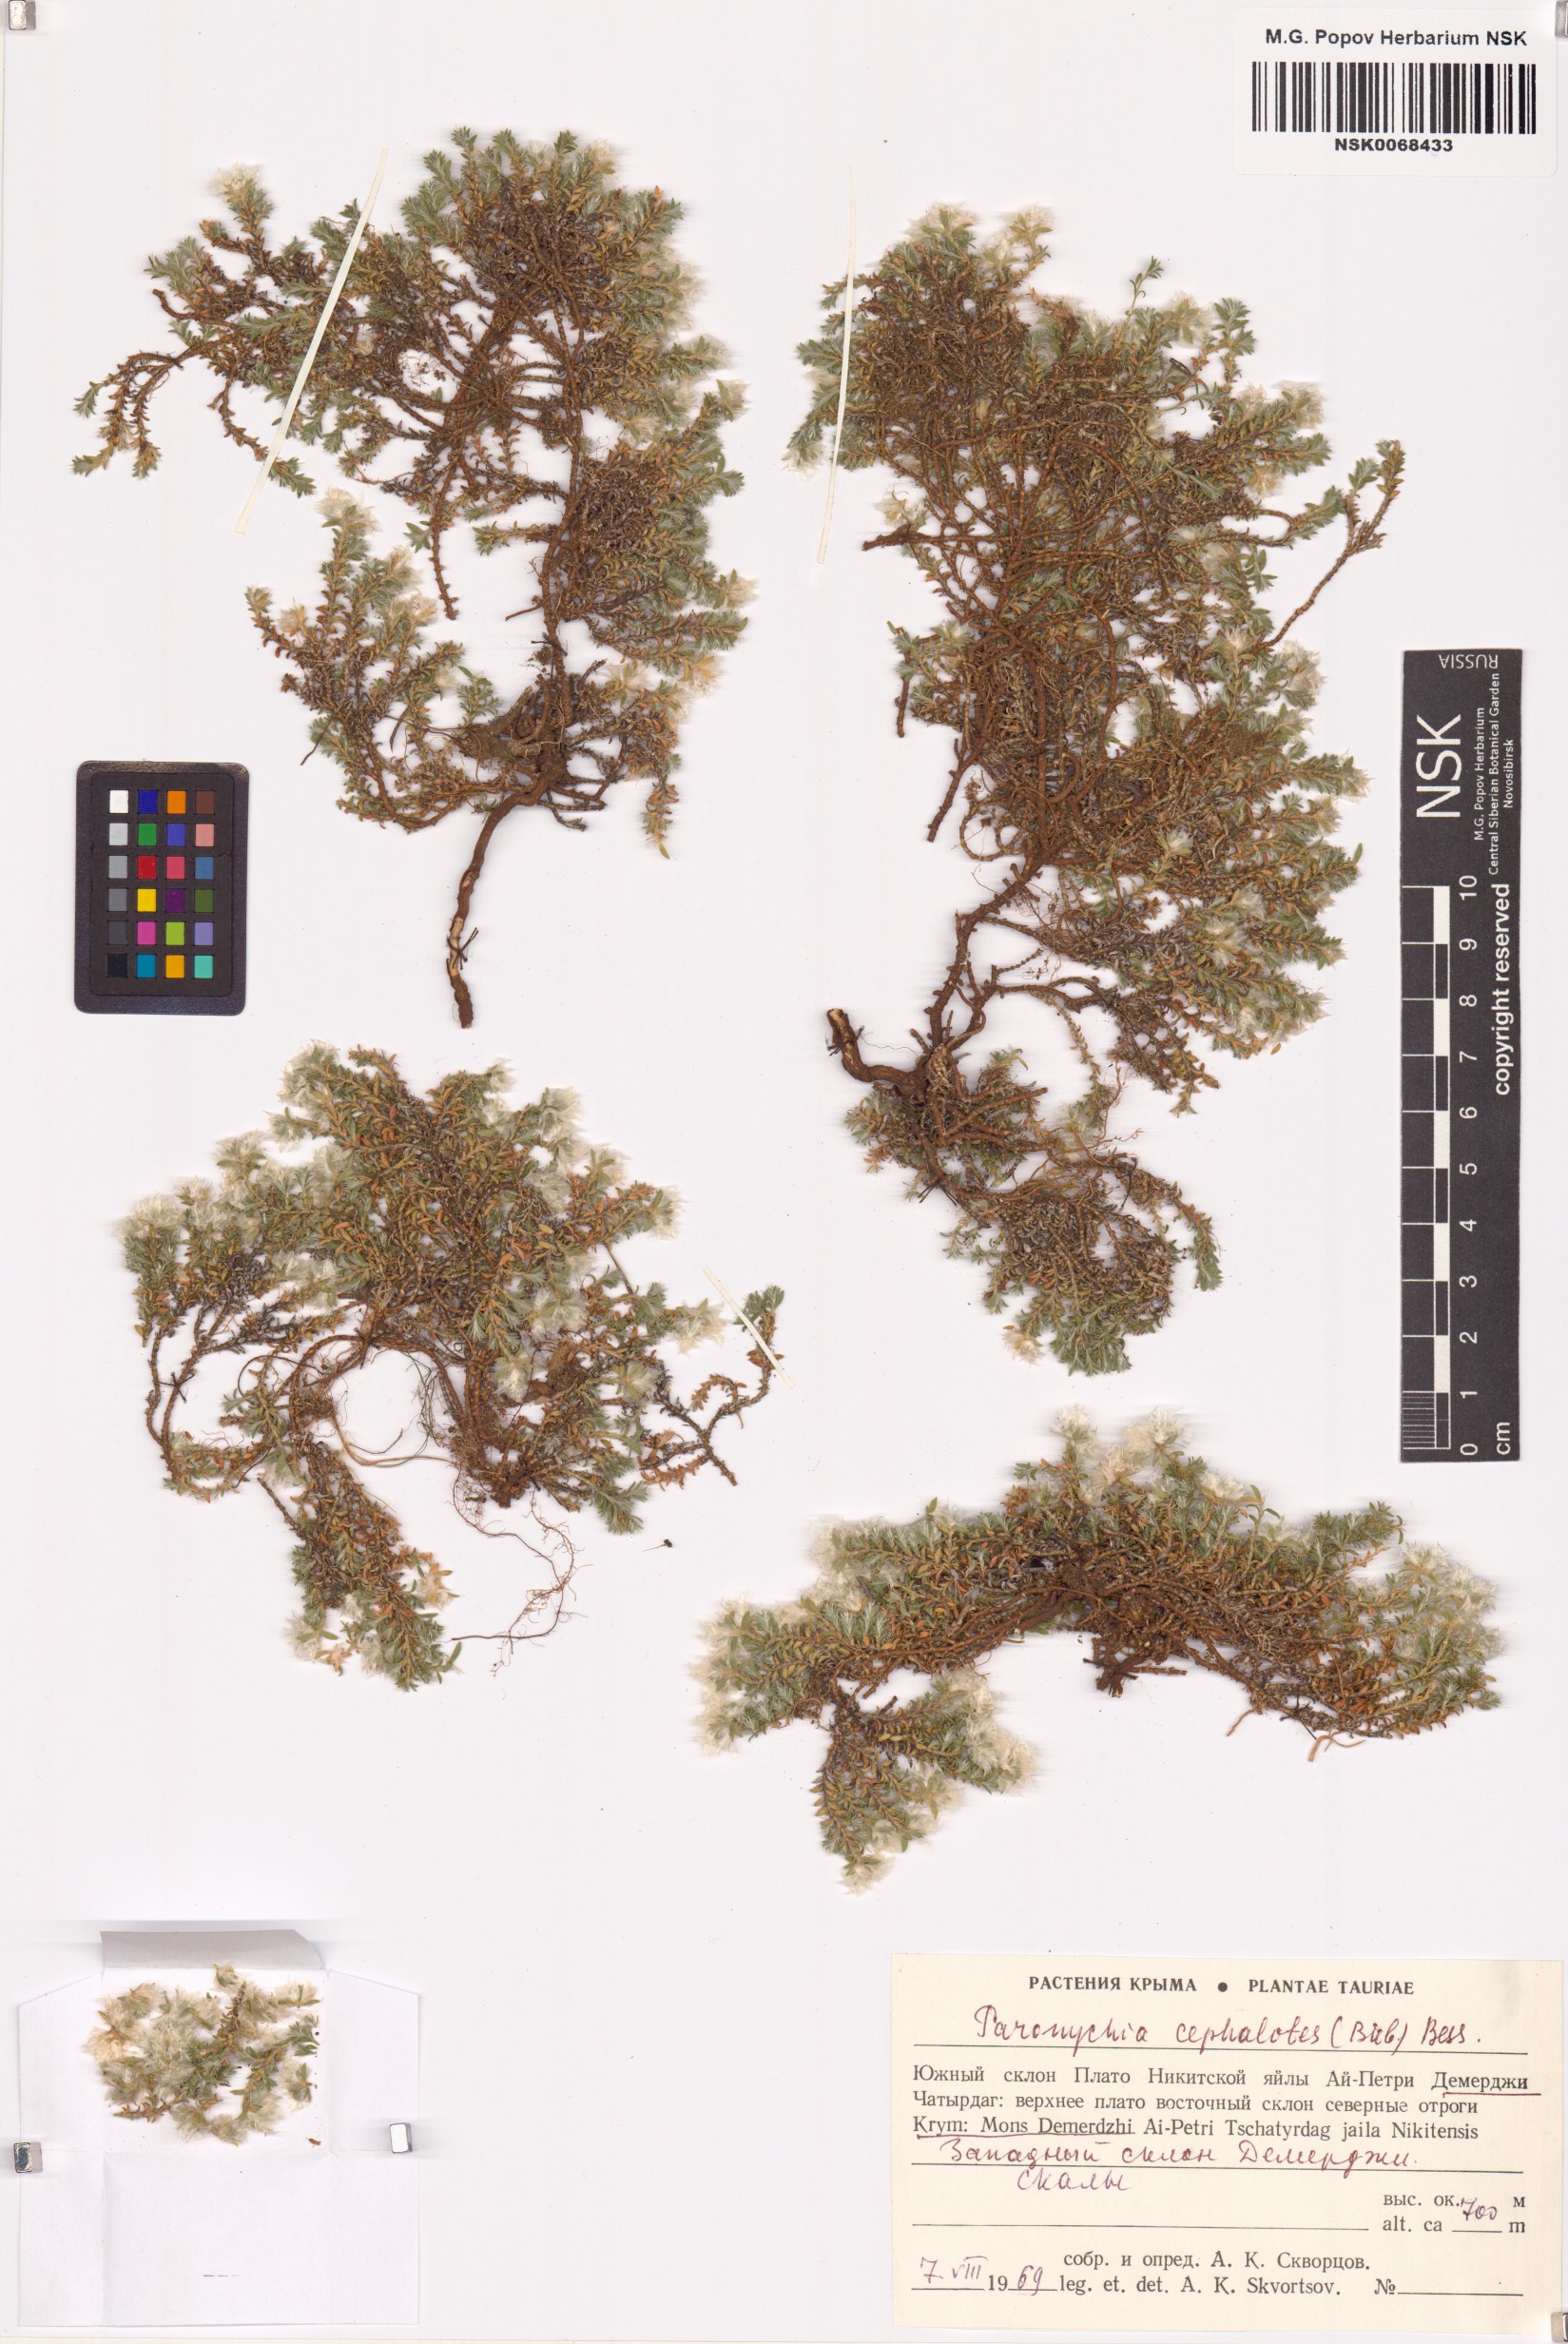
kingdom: Plantae
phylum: Tracheophyta
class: Magnoliopsida
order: Caryophyllales
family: Caryophyllaceae
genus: Paronychia
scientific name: Paronychia cephalotes
